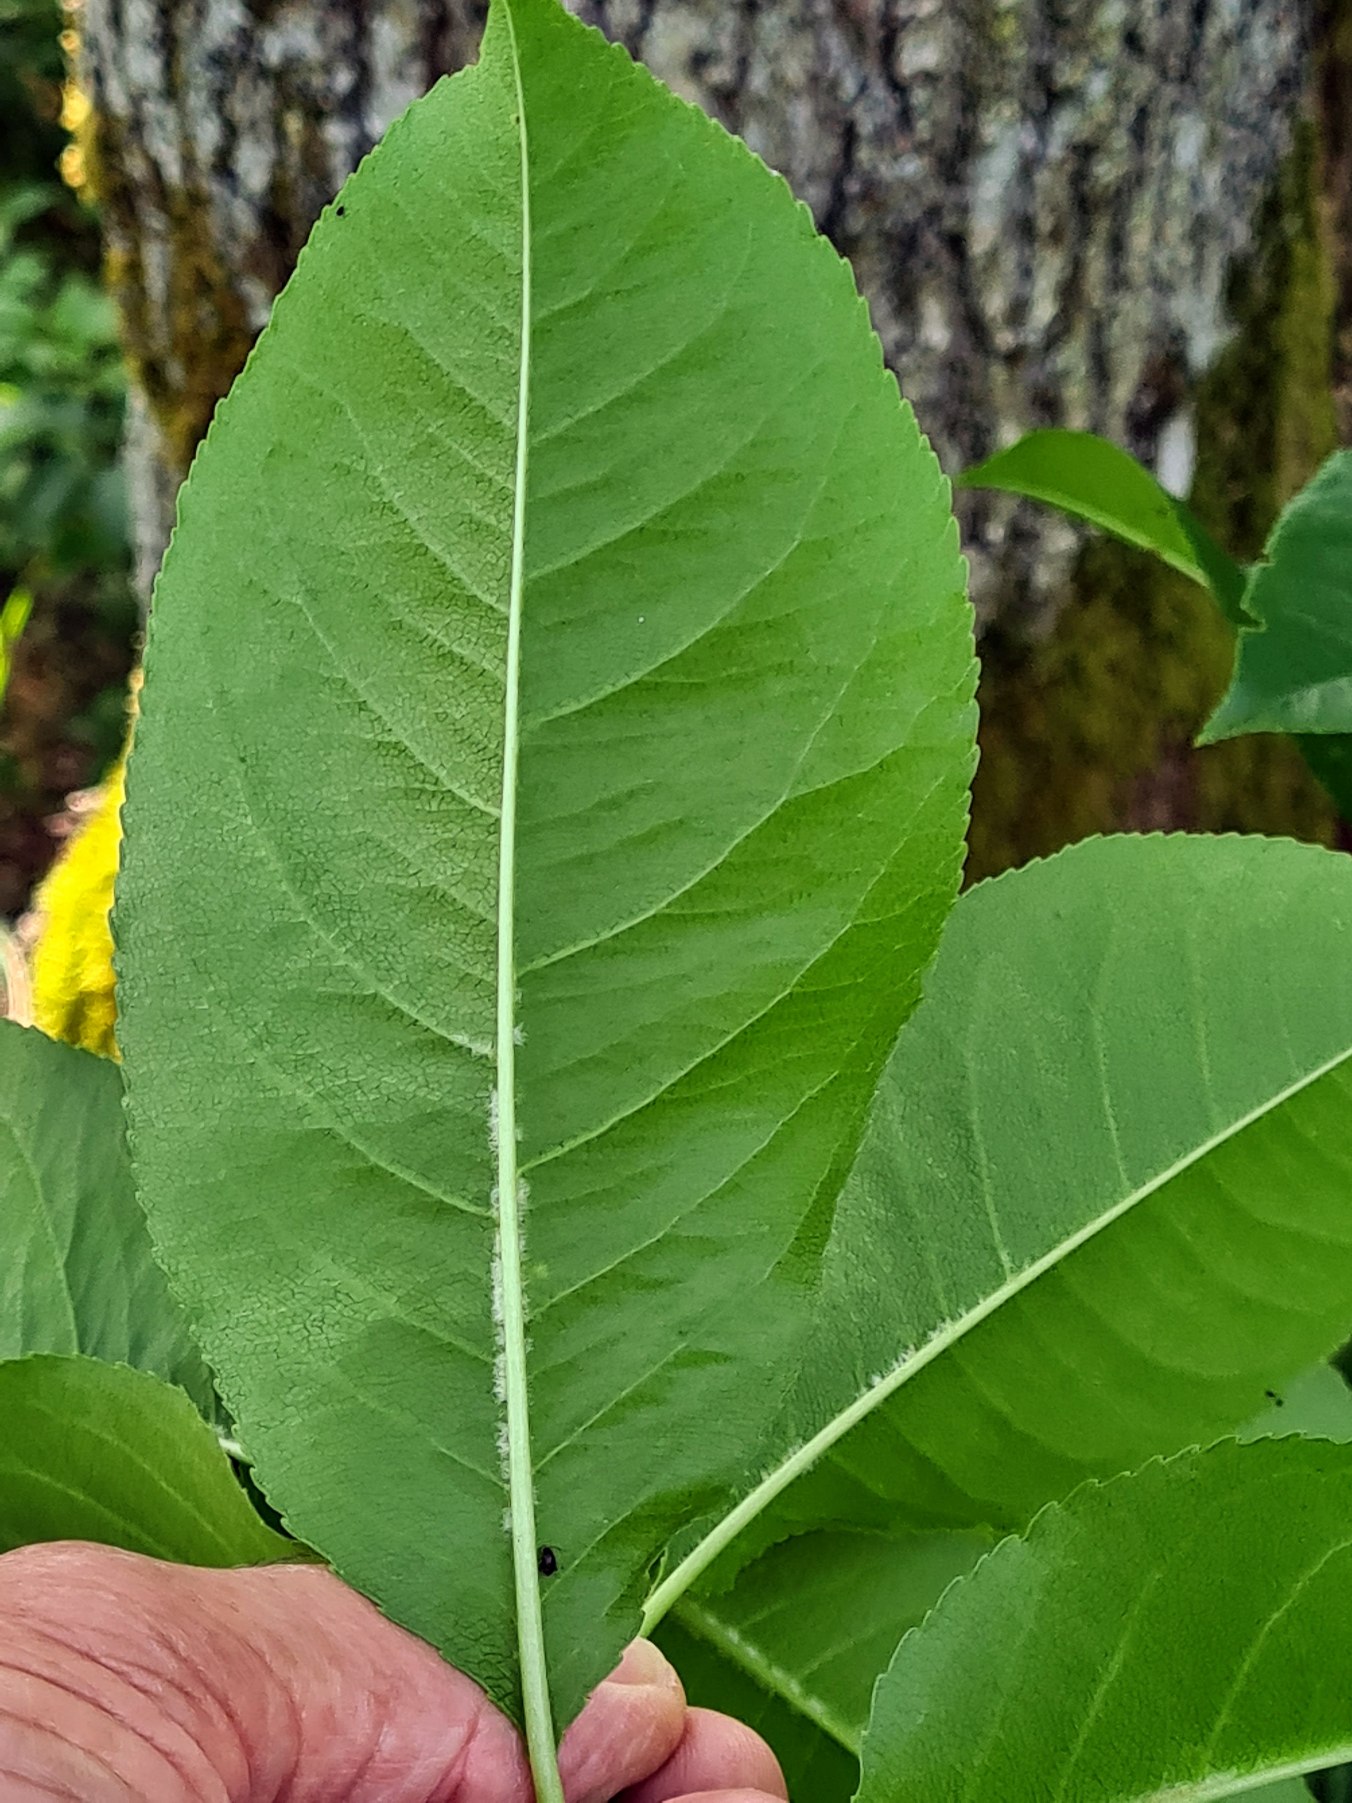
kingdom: Plantae
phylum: Tracheophyta
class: Magnoliopsida
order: Rosales
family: Rosaceae
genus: Prunus
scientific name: Prunus serotina
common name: Glansbladet hæg
